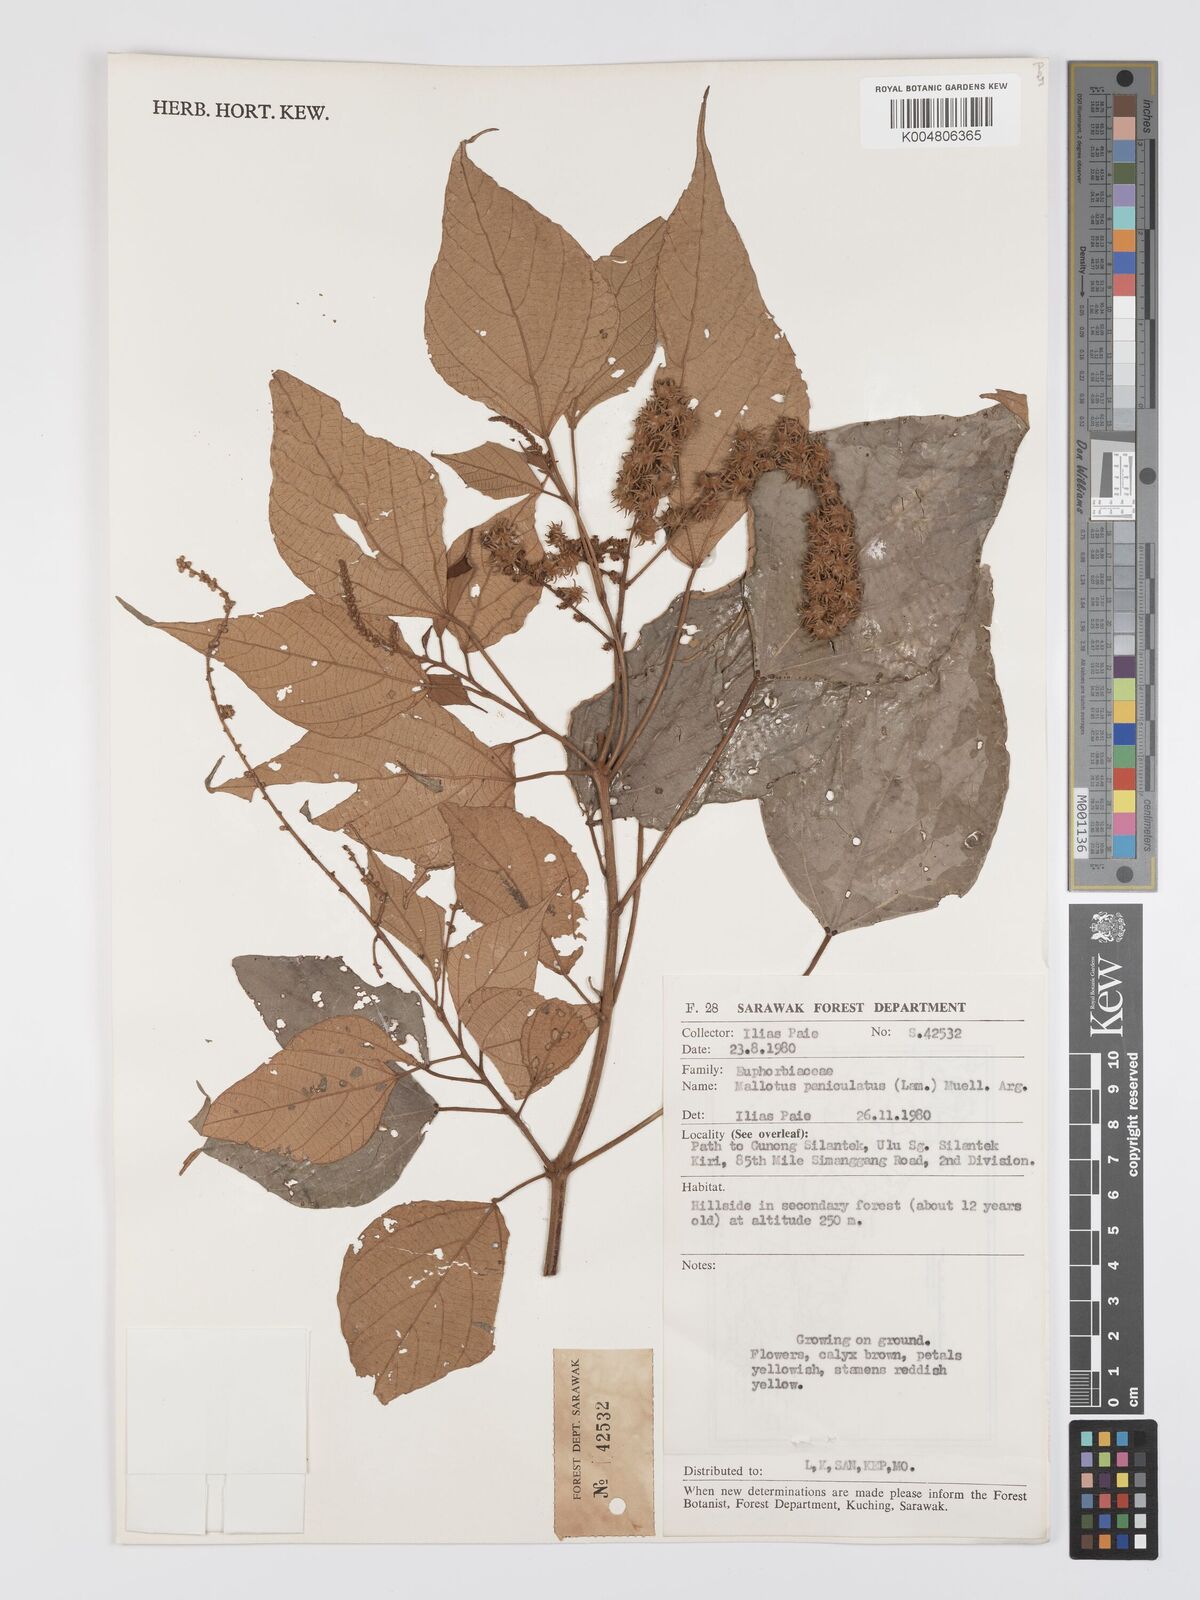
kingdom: Plantae
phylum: Tracheophyta
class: Magnoliopsida
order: Malpighiales
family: Euphorbiaceae
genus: Mallotus
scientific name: Mallotus paniculatus
